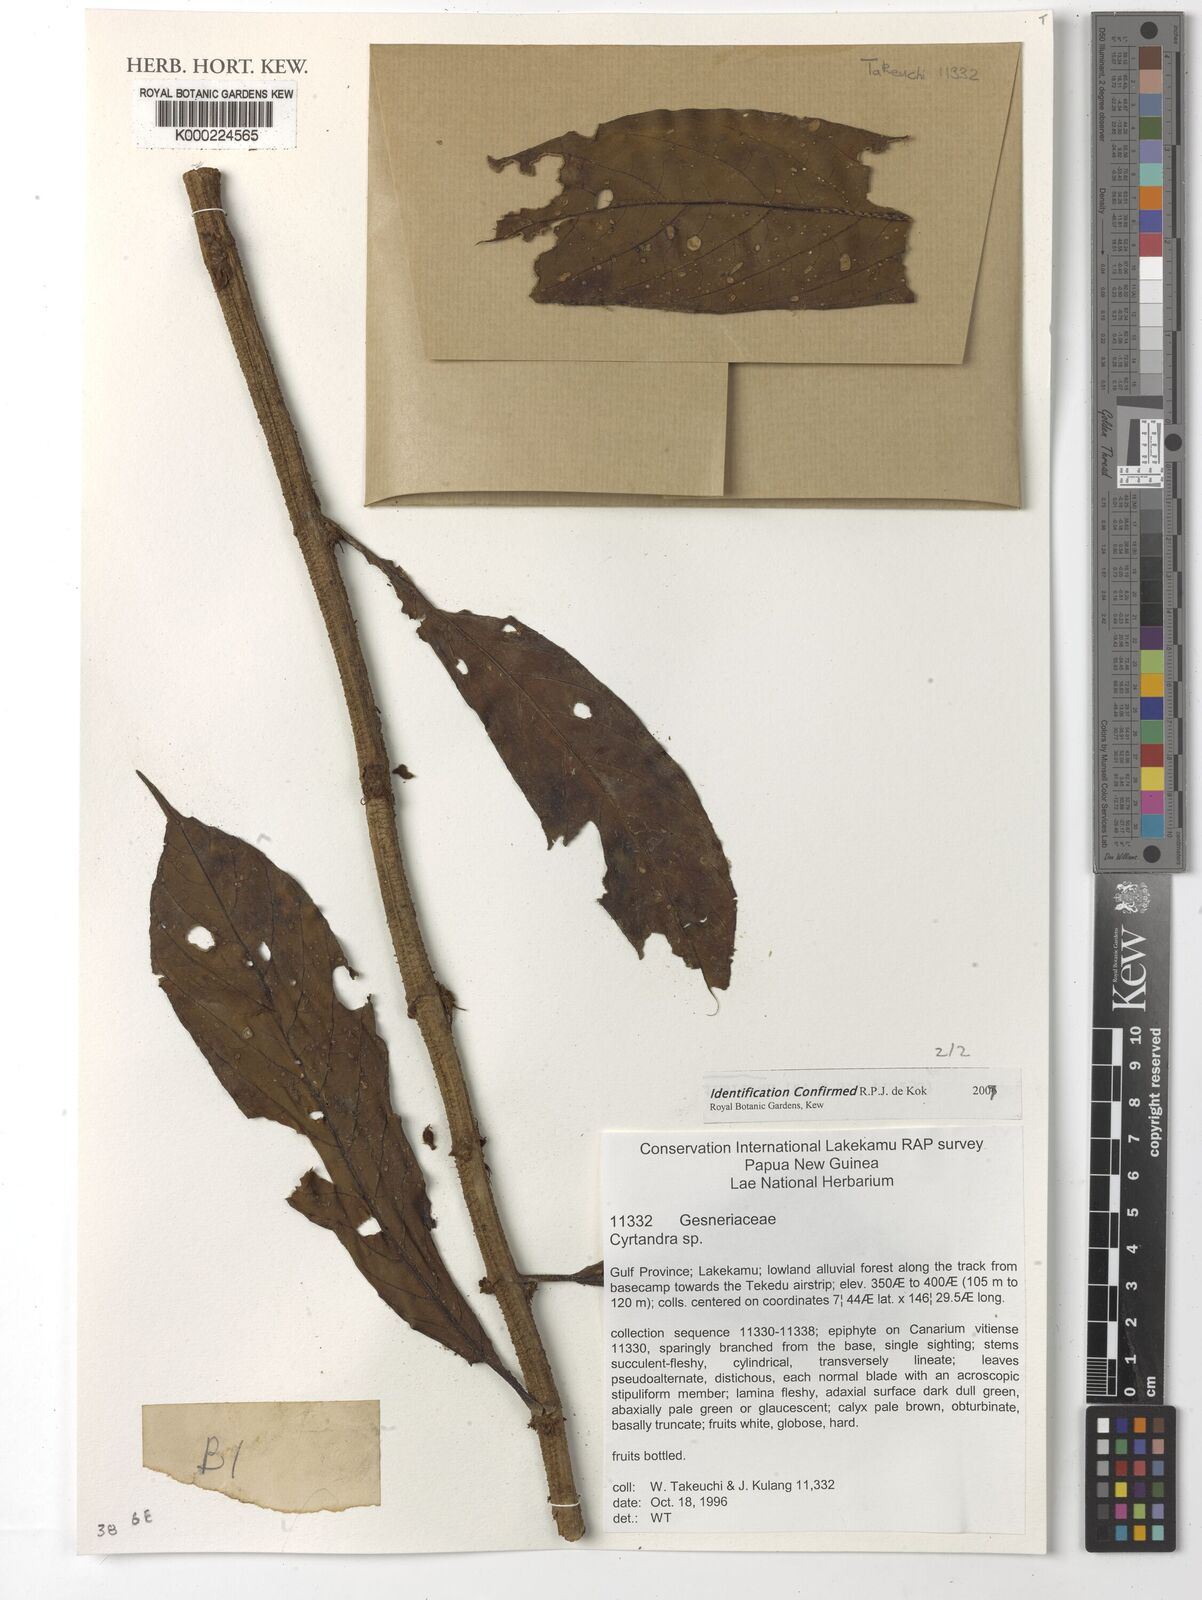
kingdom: Plantae
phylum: Tracheophyta
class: Magnoliopsida
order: Lamiales
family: Gesneriaceae
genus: Cyrtandra
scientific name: Cyrtandra
